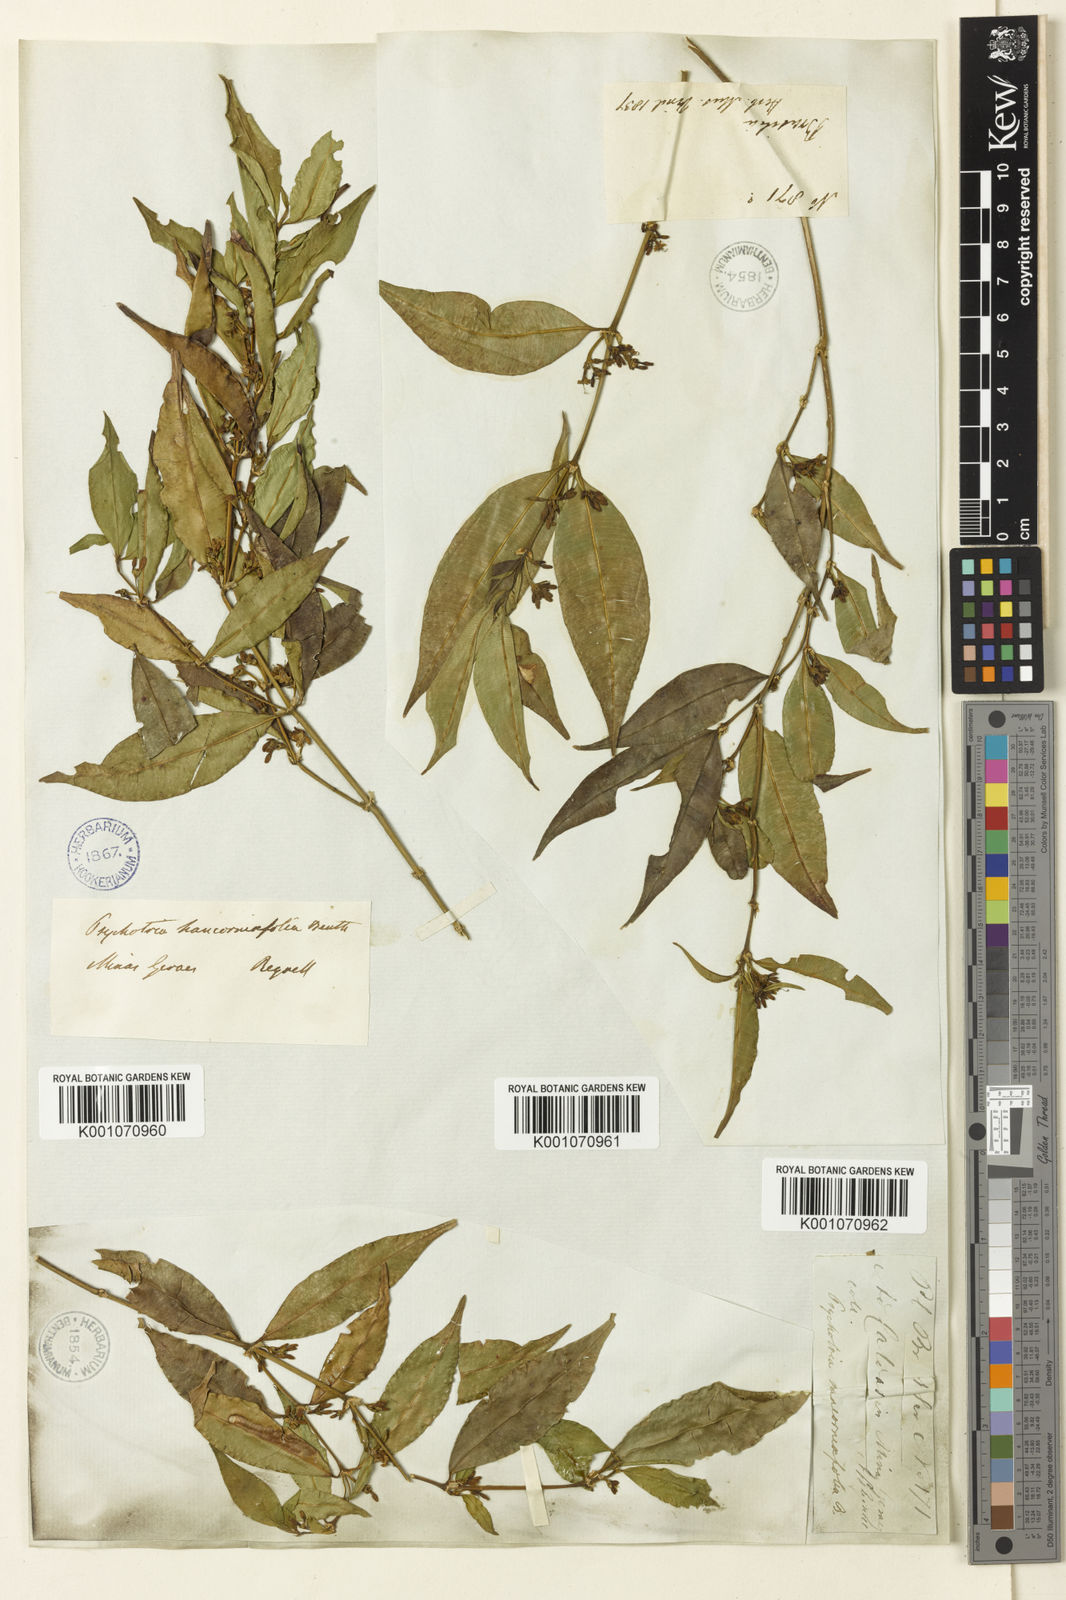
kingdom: Plantae
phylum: Tracheophyta
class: Magnoliopsida
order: Gentianales
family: Rubiaceae
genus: Palicourea
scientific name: Palicourea sessilis
